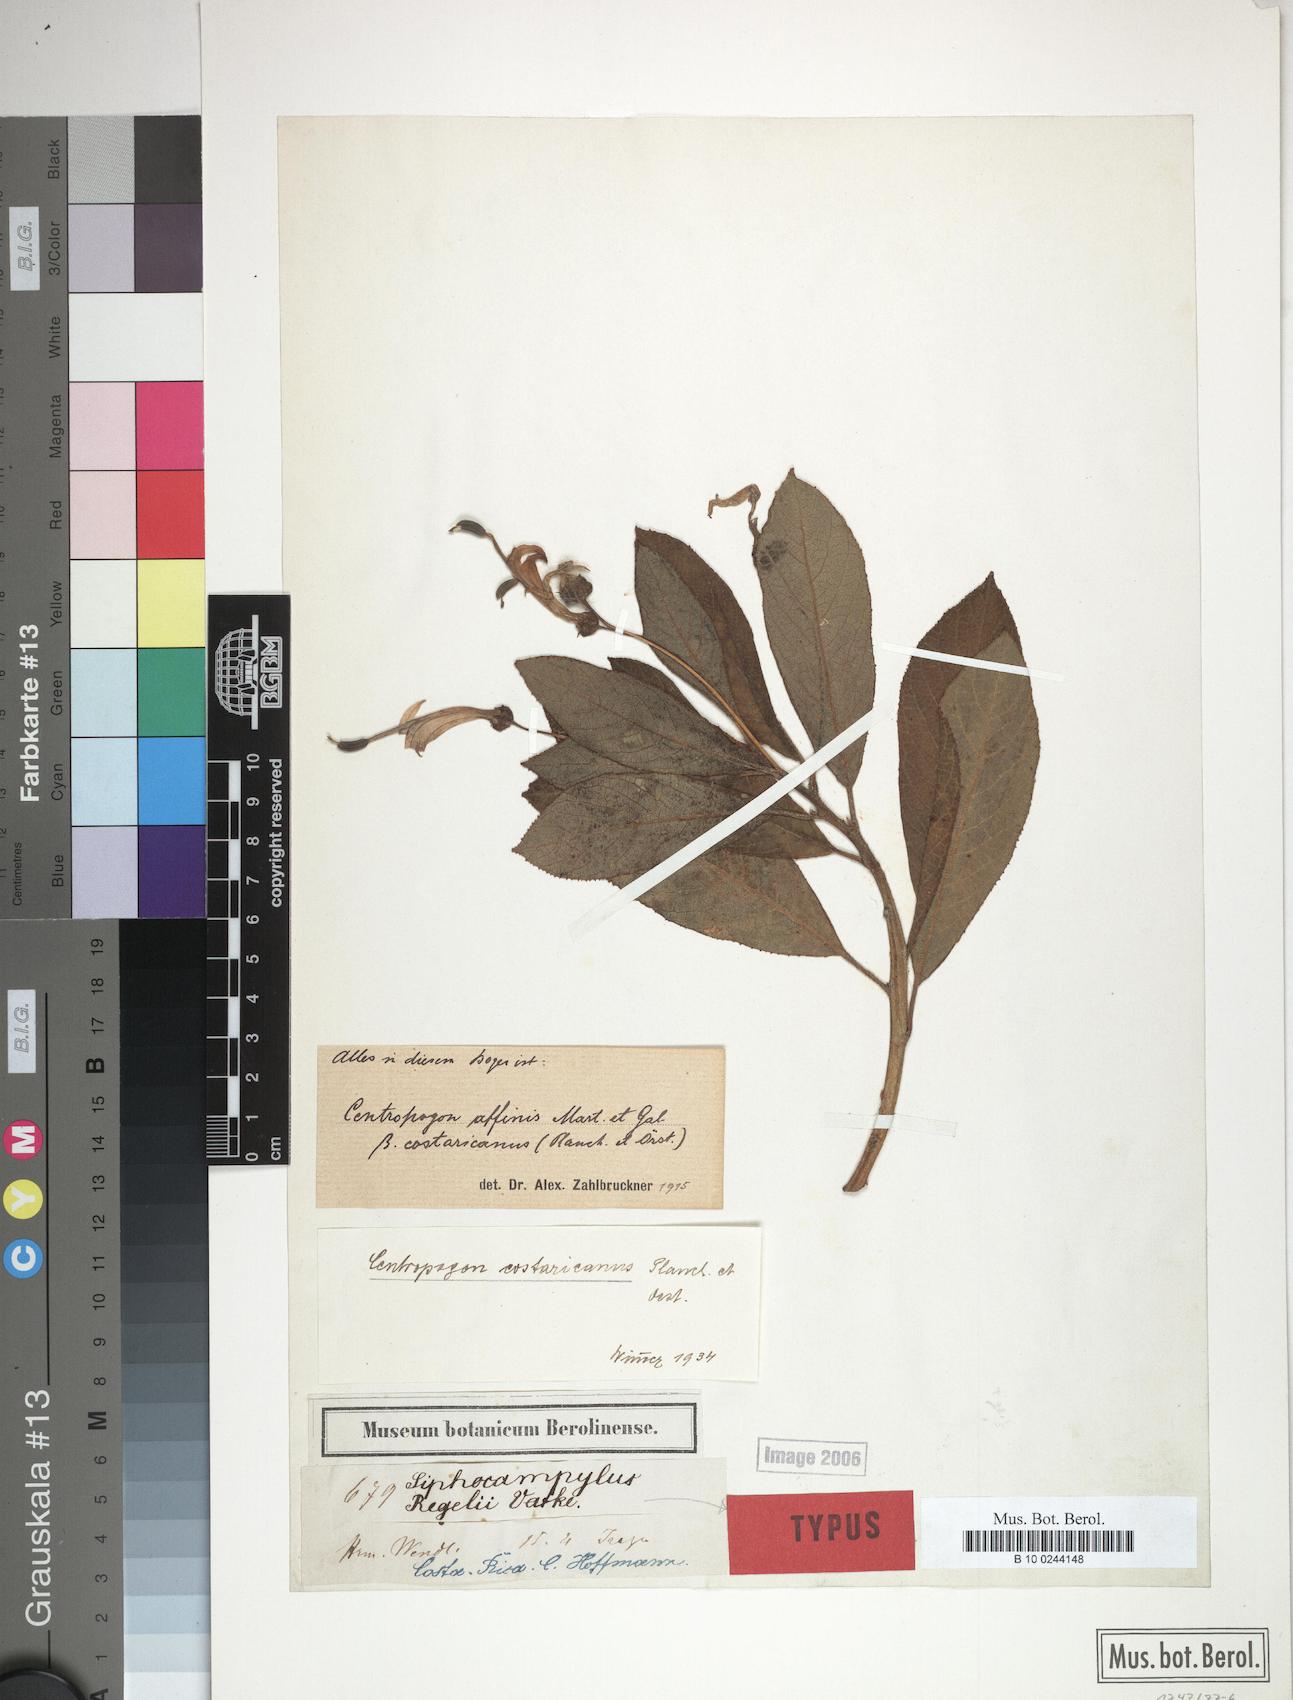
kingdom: Plantae
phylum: Tracheophyta
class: Magnoliopsida
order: Asterales
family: Campanulaceae
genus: Centropogon
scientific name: Centropogon ferrugineus
